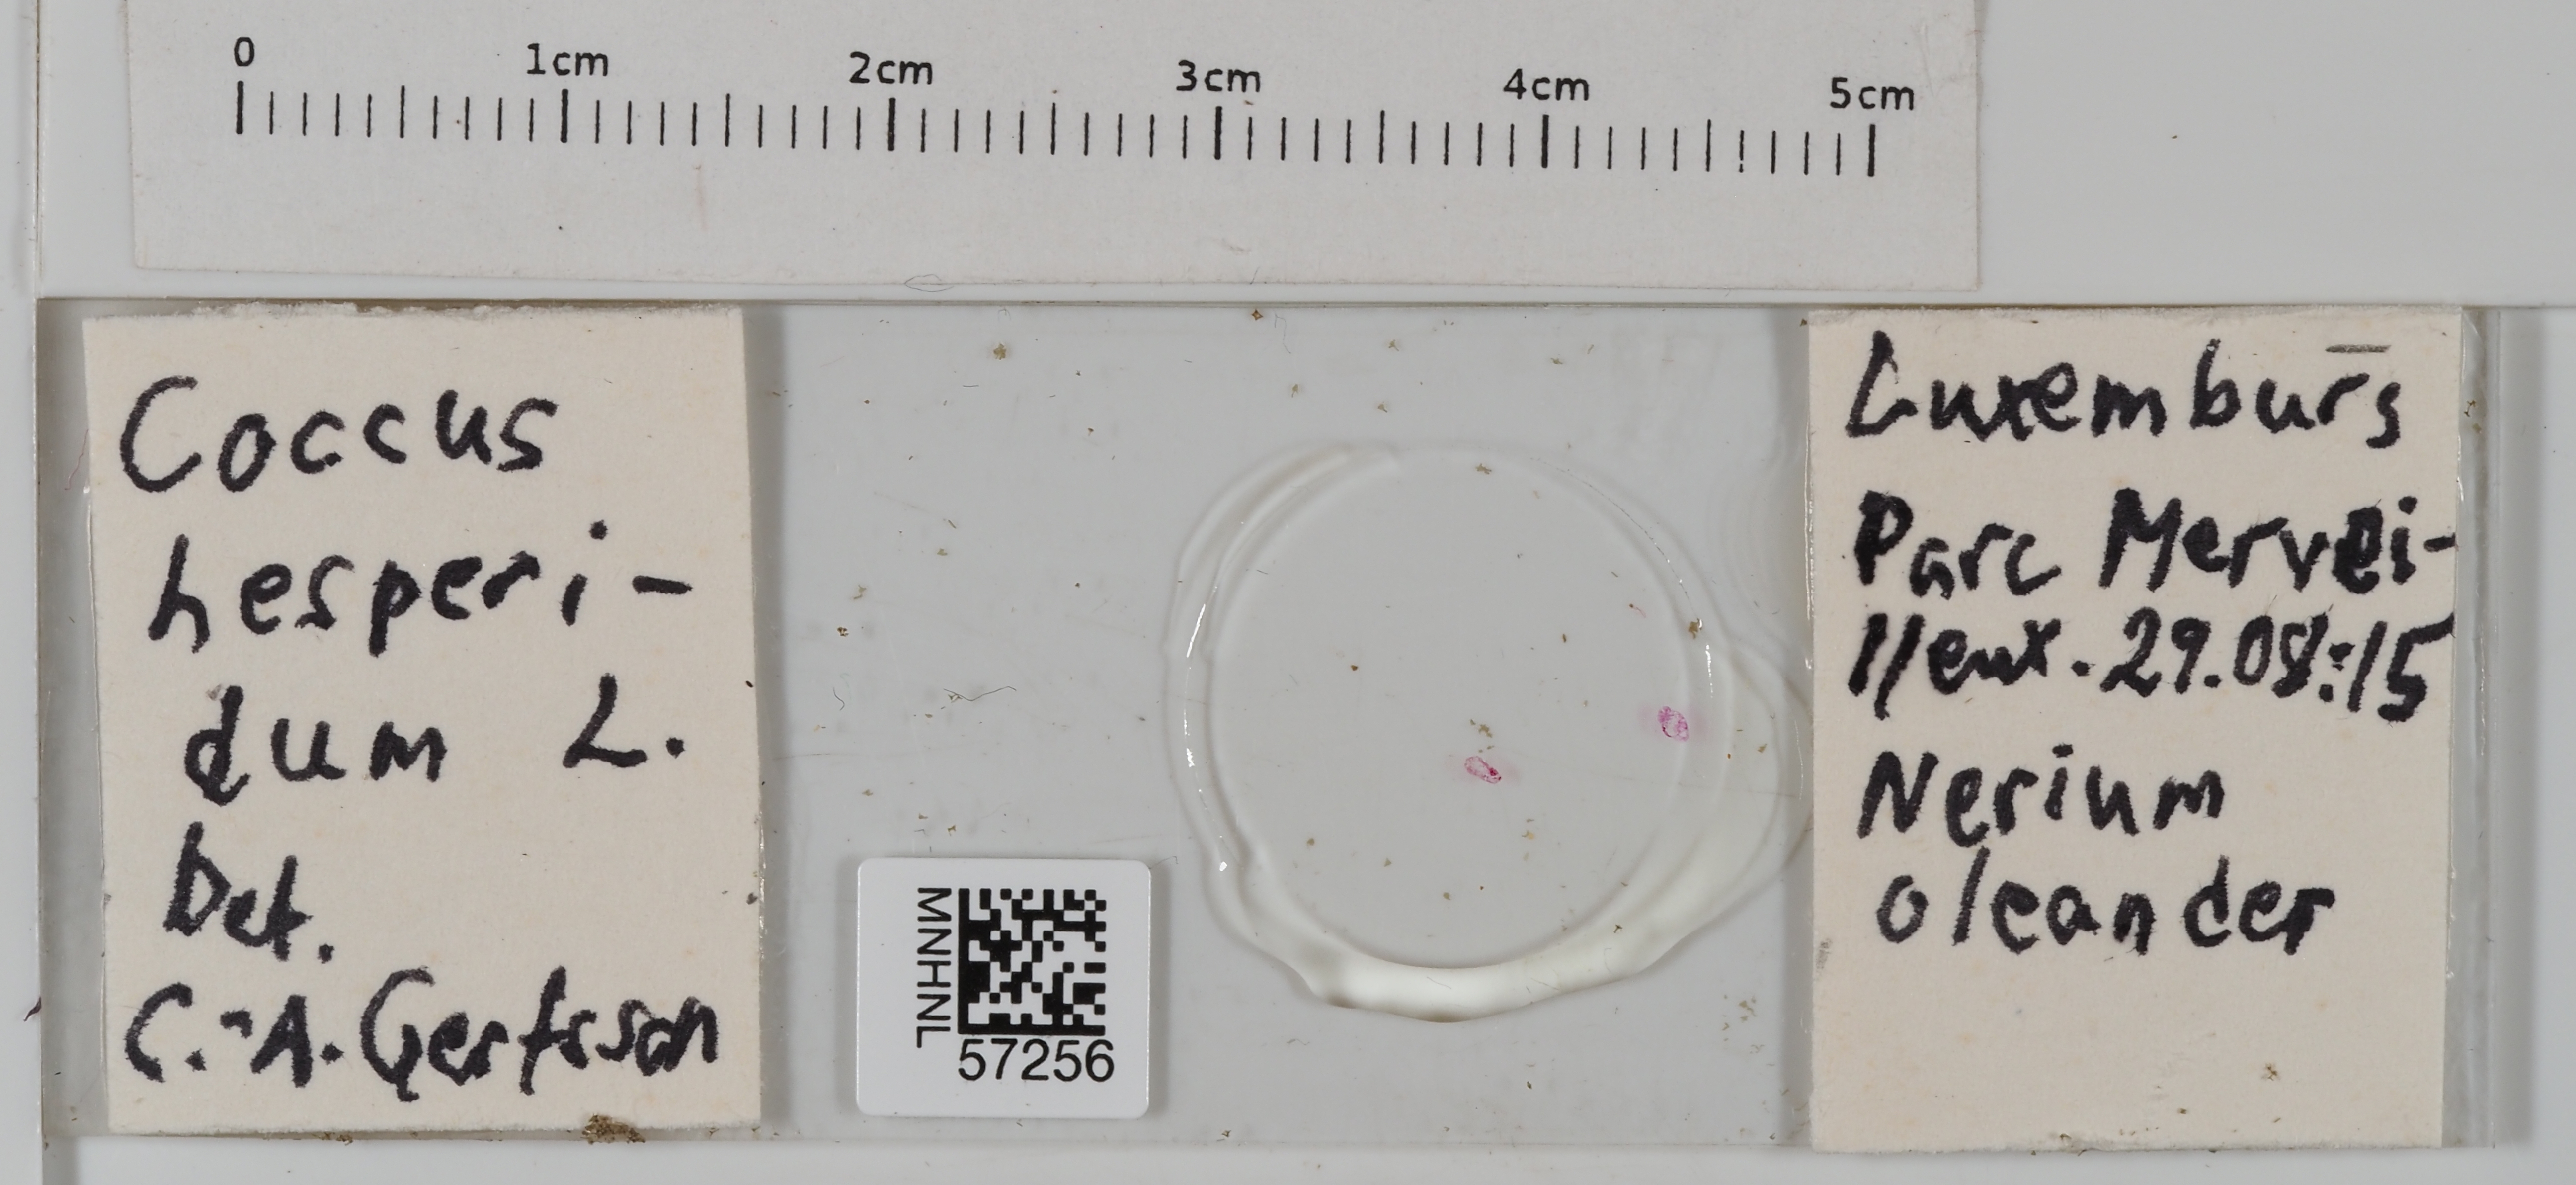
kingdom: Animalia
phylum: Arthropoda
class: Insecta
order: Hemiptera
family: Coccidae
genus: Coccus
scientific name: Coccus hesperidum
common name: Soft brown scale
